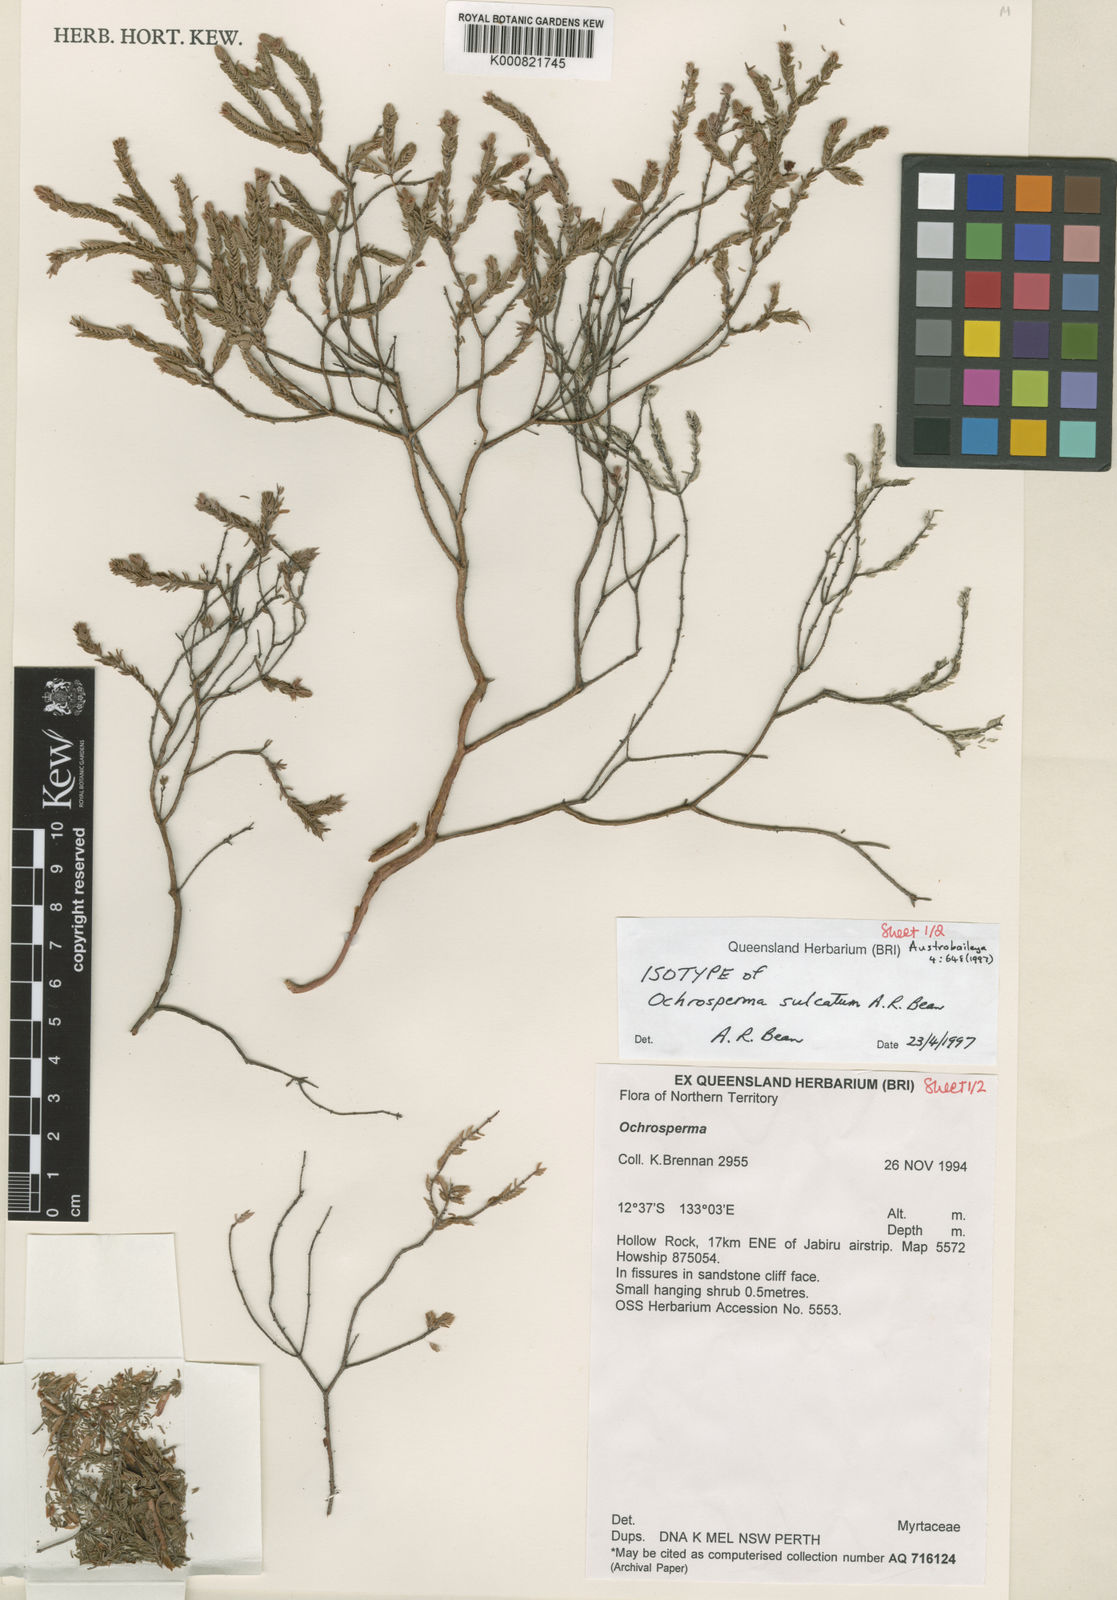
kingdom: Plantae
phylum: Tracheophyta
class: Magnoliopsida
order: Myrtales
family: Myrtaceae
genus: Ochrosperma
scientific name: Ochrosperma sulcatum
